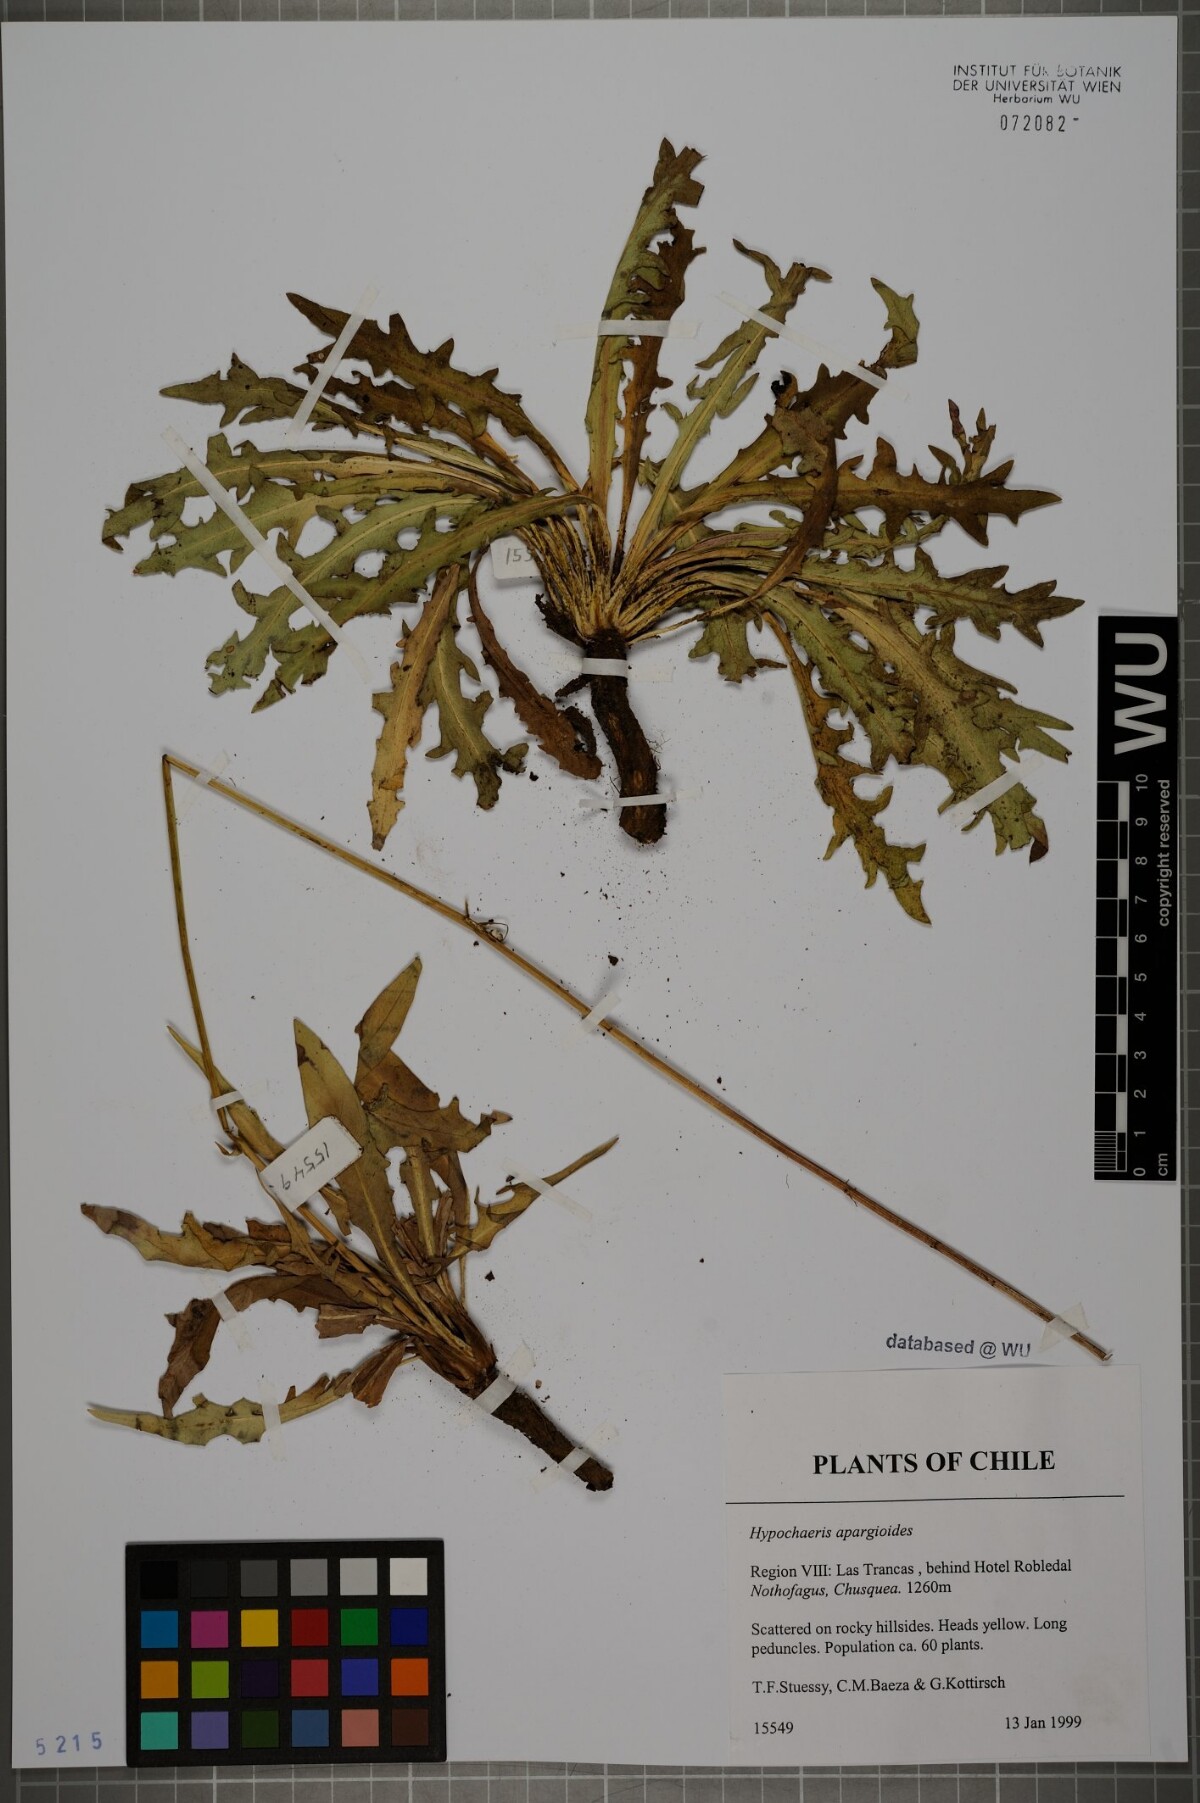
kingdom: Plantae
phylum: Tracheophyta
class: Magnoliopsida
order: Asterales
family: Asteraceae
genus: Hypochaeris
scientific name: Hypochaeris apargioides
